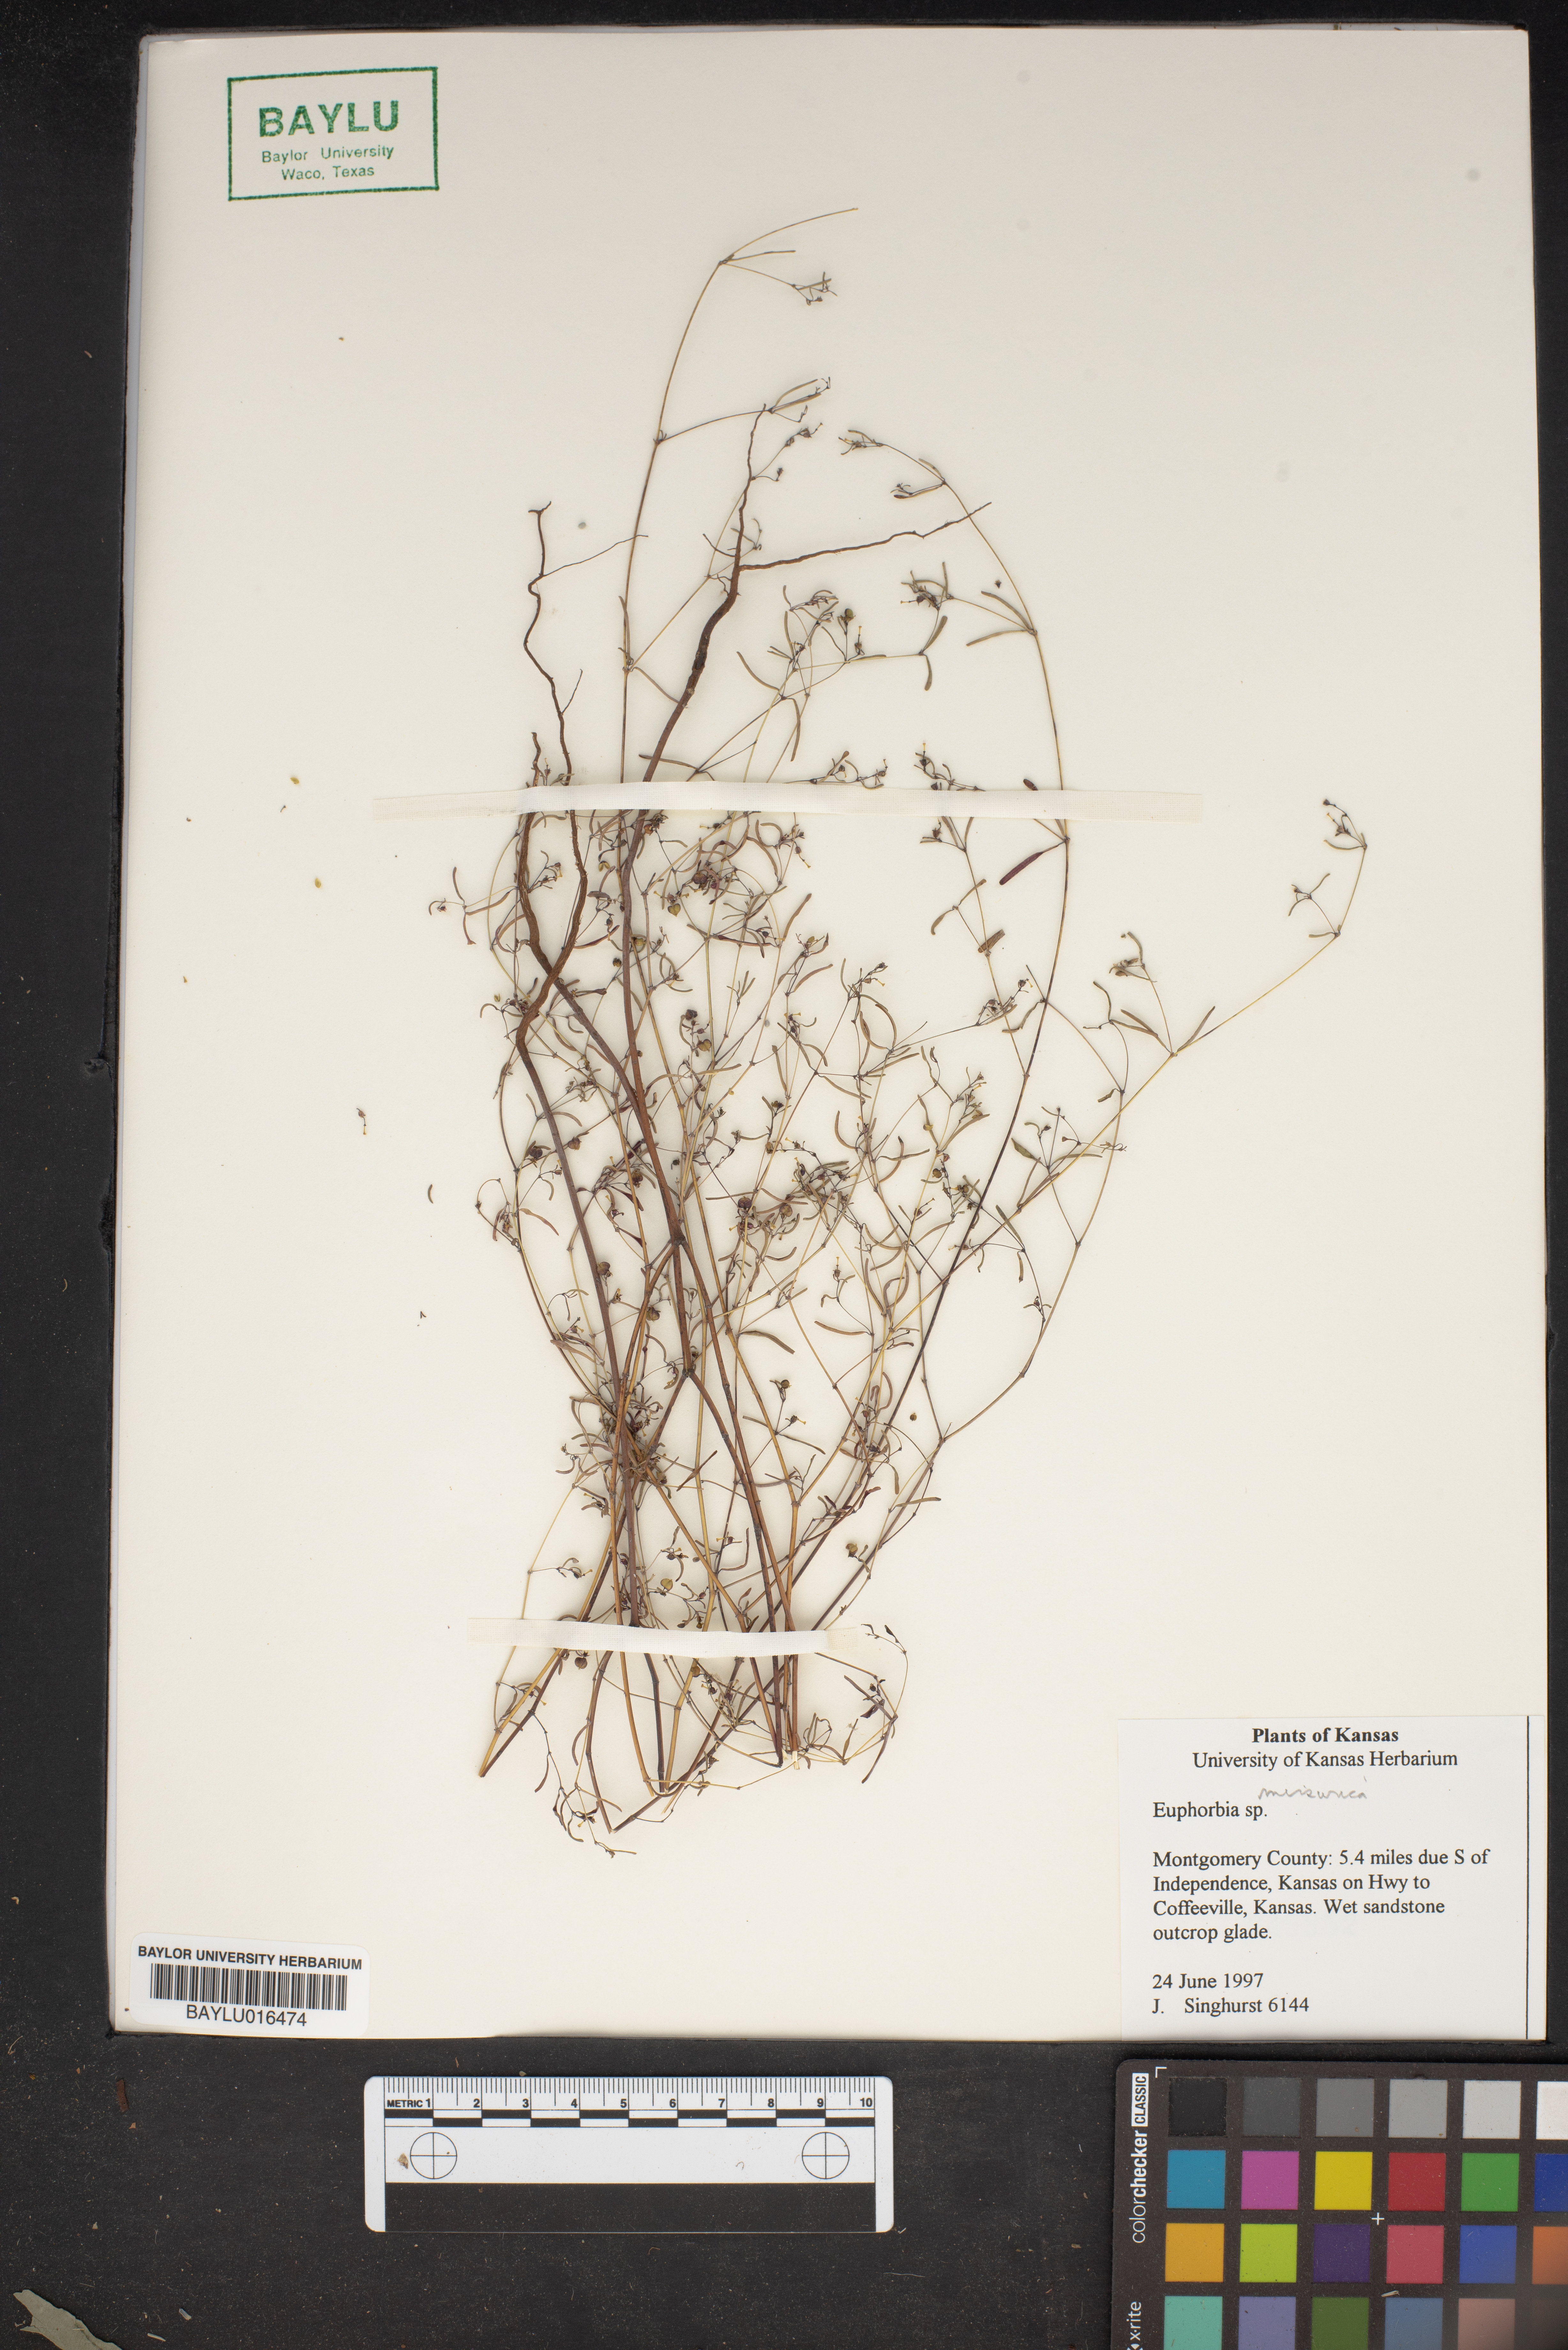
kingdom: Plantae
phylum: Tracheophyta
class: Magnoliopsida
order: Malpighiales
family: Euphorbiaceae
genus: Euphorbia
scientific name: Euphorbia missurica
